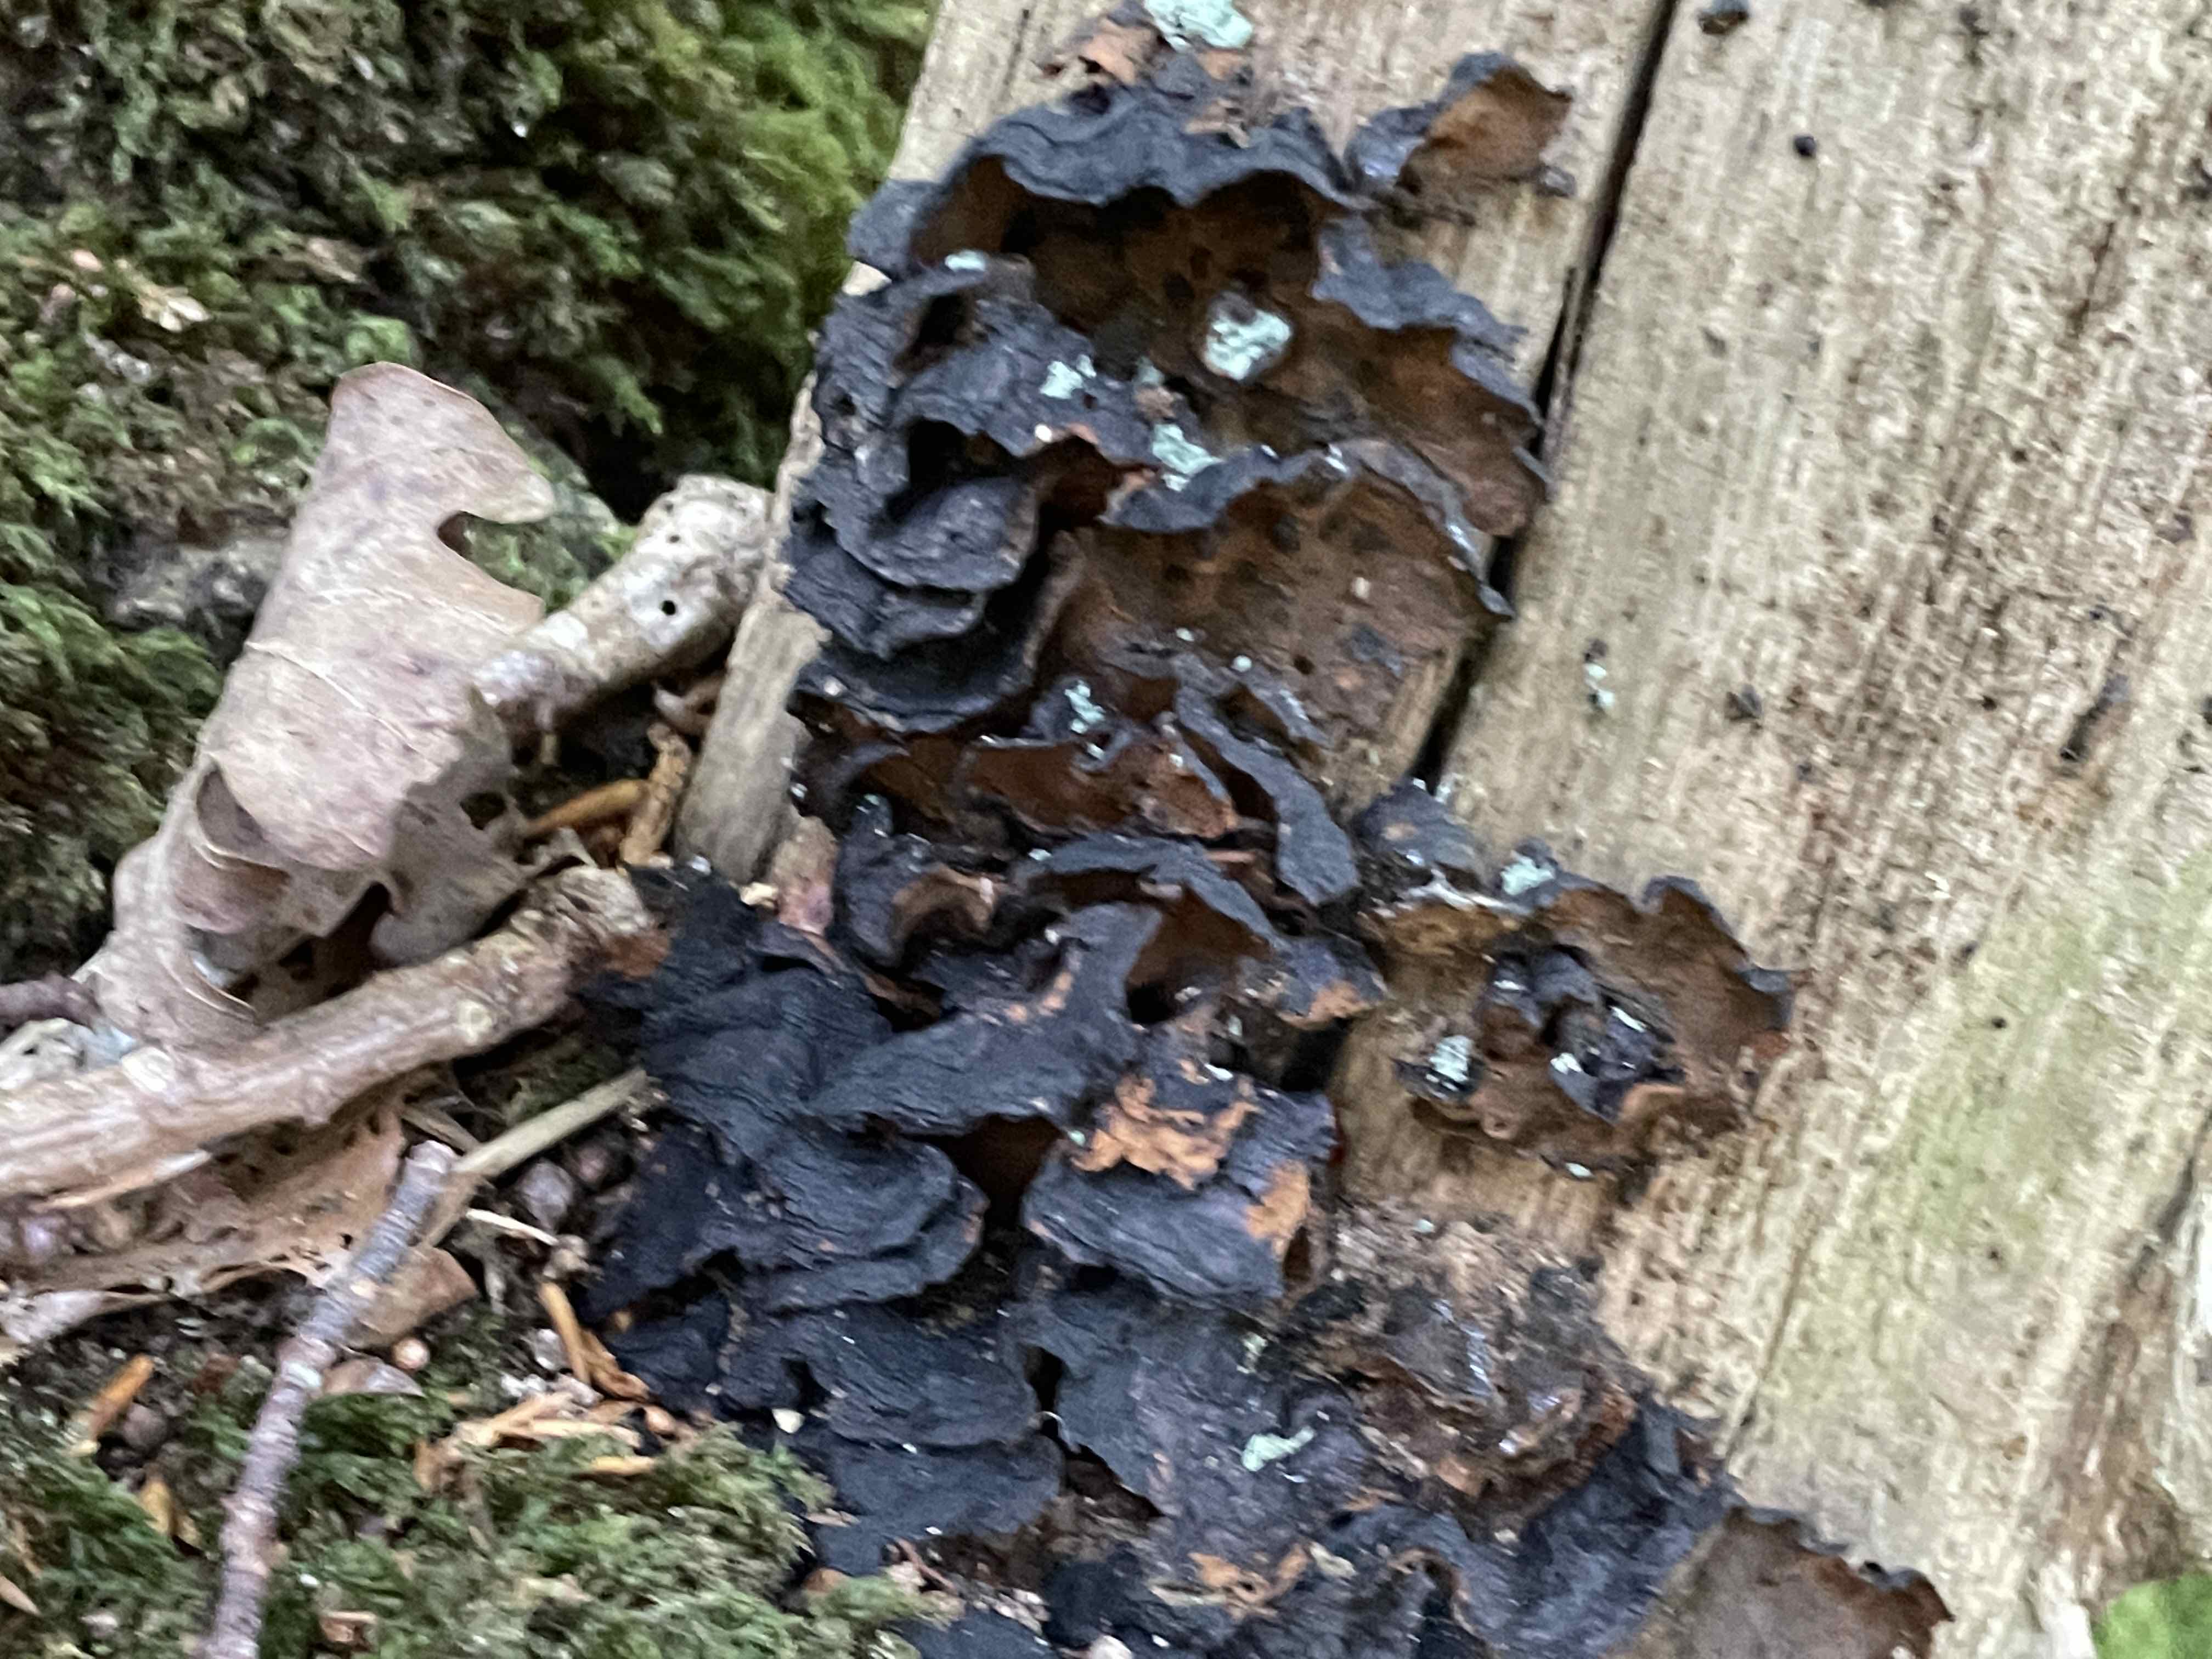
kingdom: Fungi
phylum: Basidiomycota
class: Agaricomycetes
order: Hymenochaetales
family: Hymenochaetaceae
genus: Hymenochaete
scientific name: Hymenochaete rubiginosa
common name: stiv ruslædersvamp
